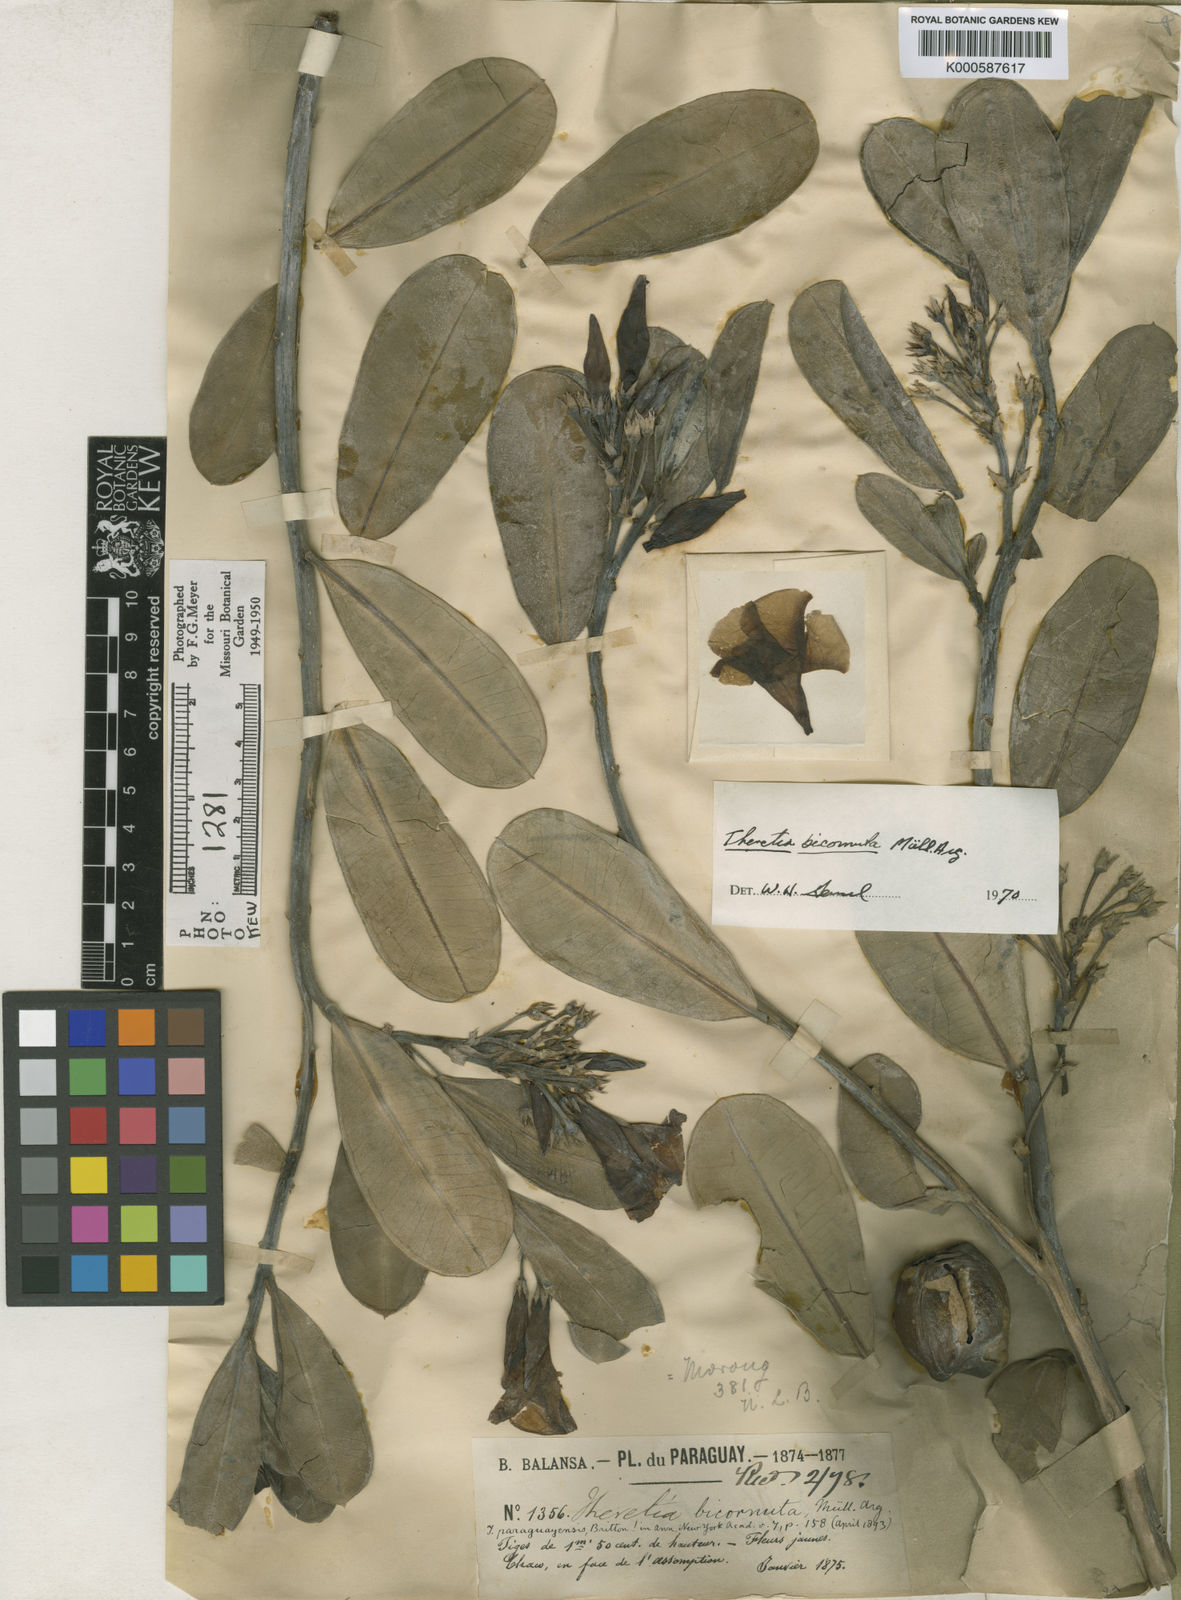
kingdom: Plantae
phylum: Tracheophyta
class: Magnoliopsida
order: Gentianales
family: Apocynaceae
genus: Thevetia
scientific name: Thevetia
